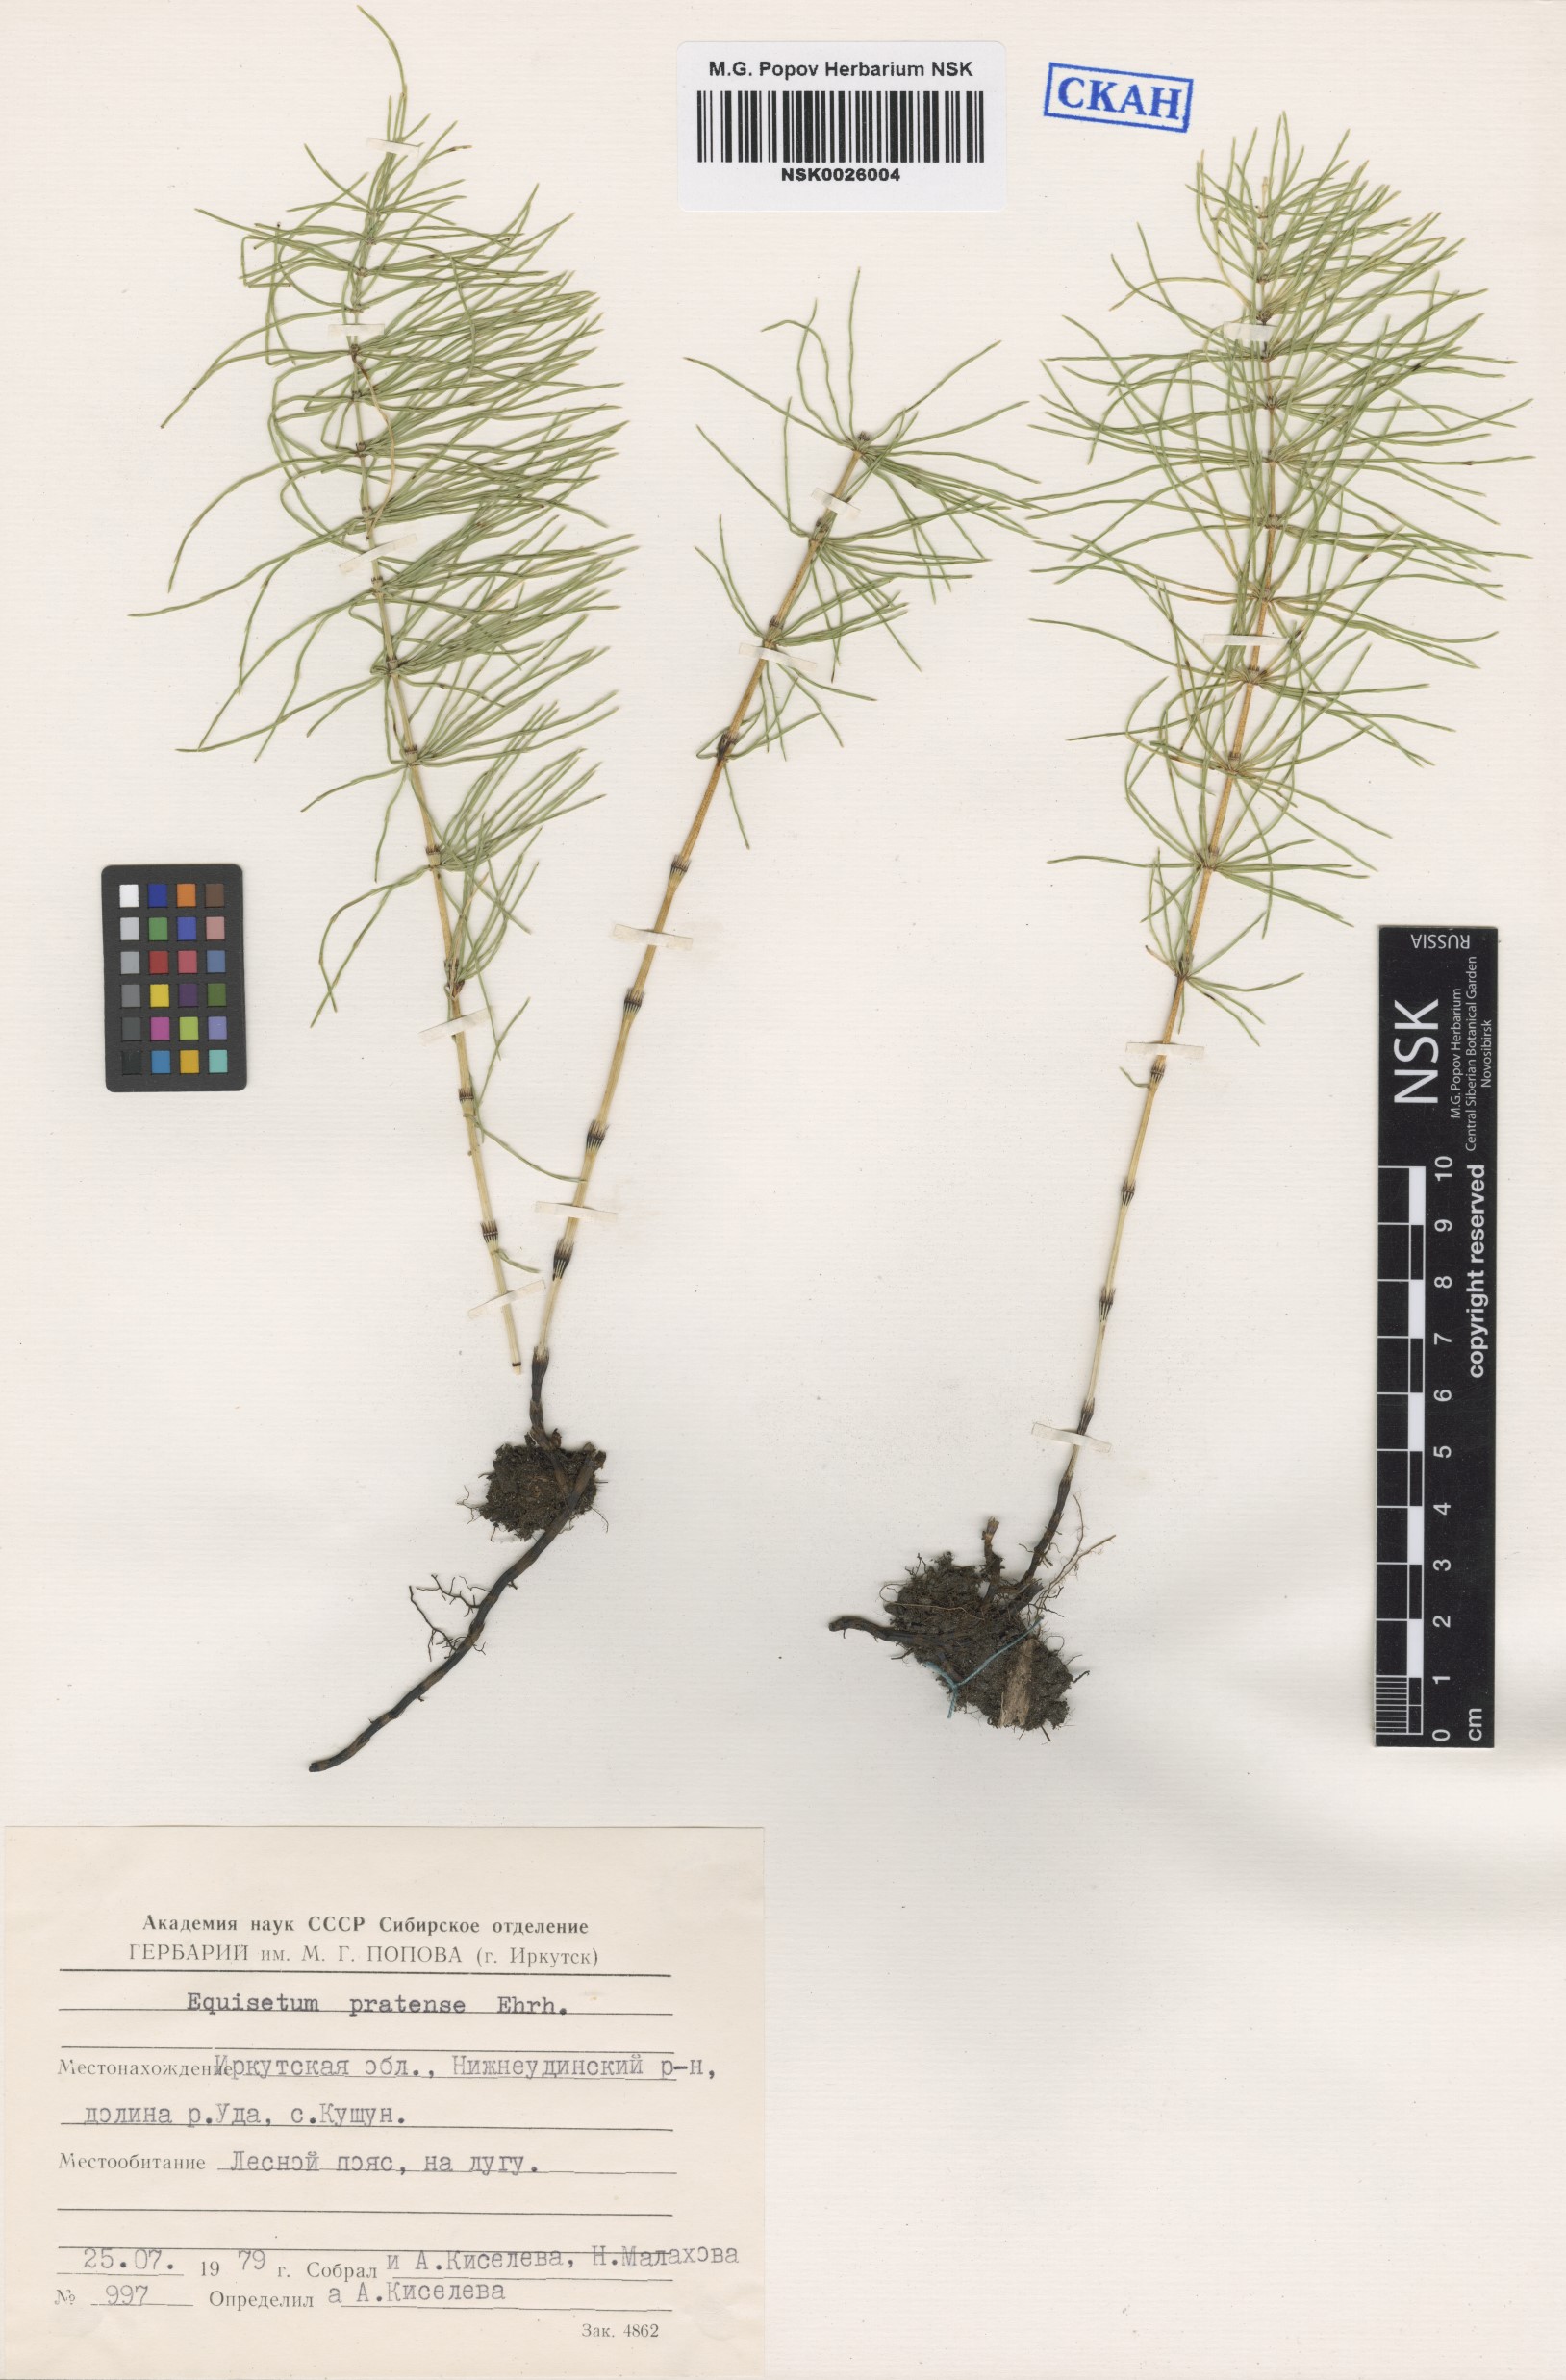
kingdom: Plantae
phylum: Tracheophyta
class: Polypodiopsida
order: Equisetales
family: Equisetaceae
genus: Equisetum
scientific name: Equisetum pratense
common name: Meadow horsetail
